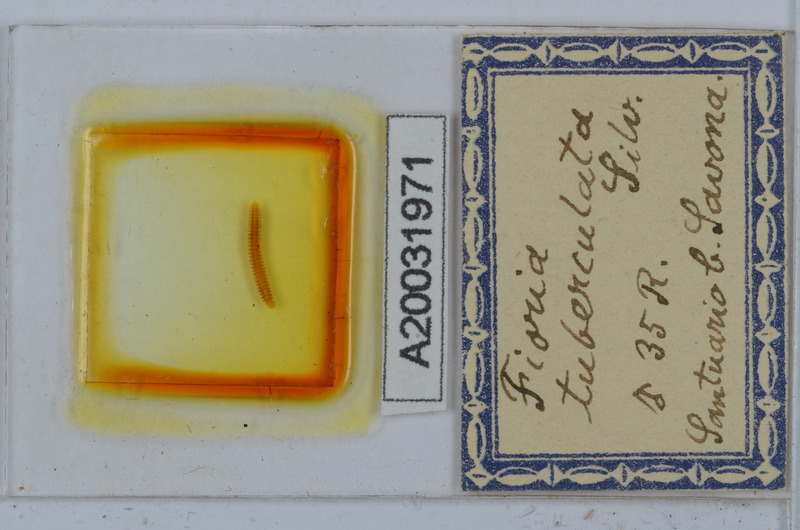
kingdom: Animalia
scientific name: Animalia
